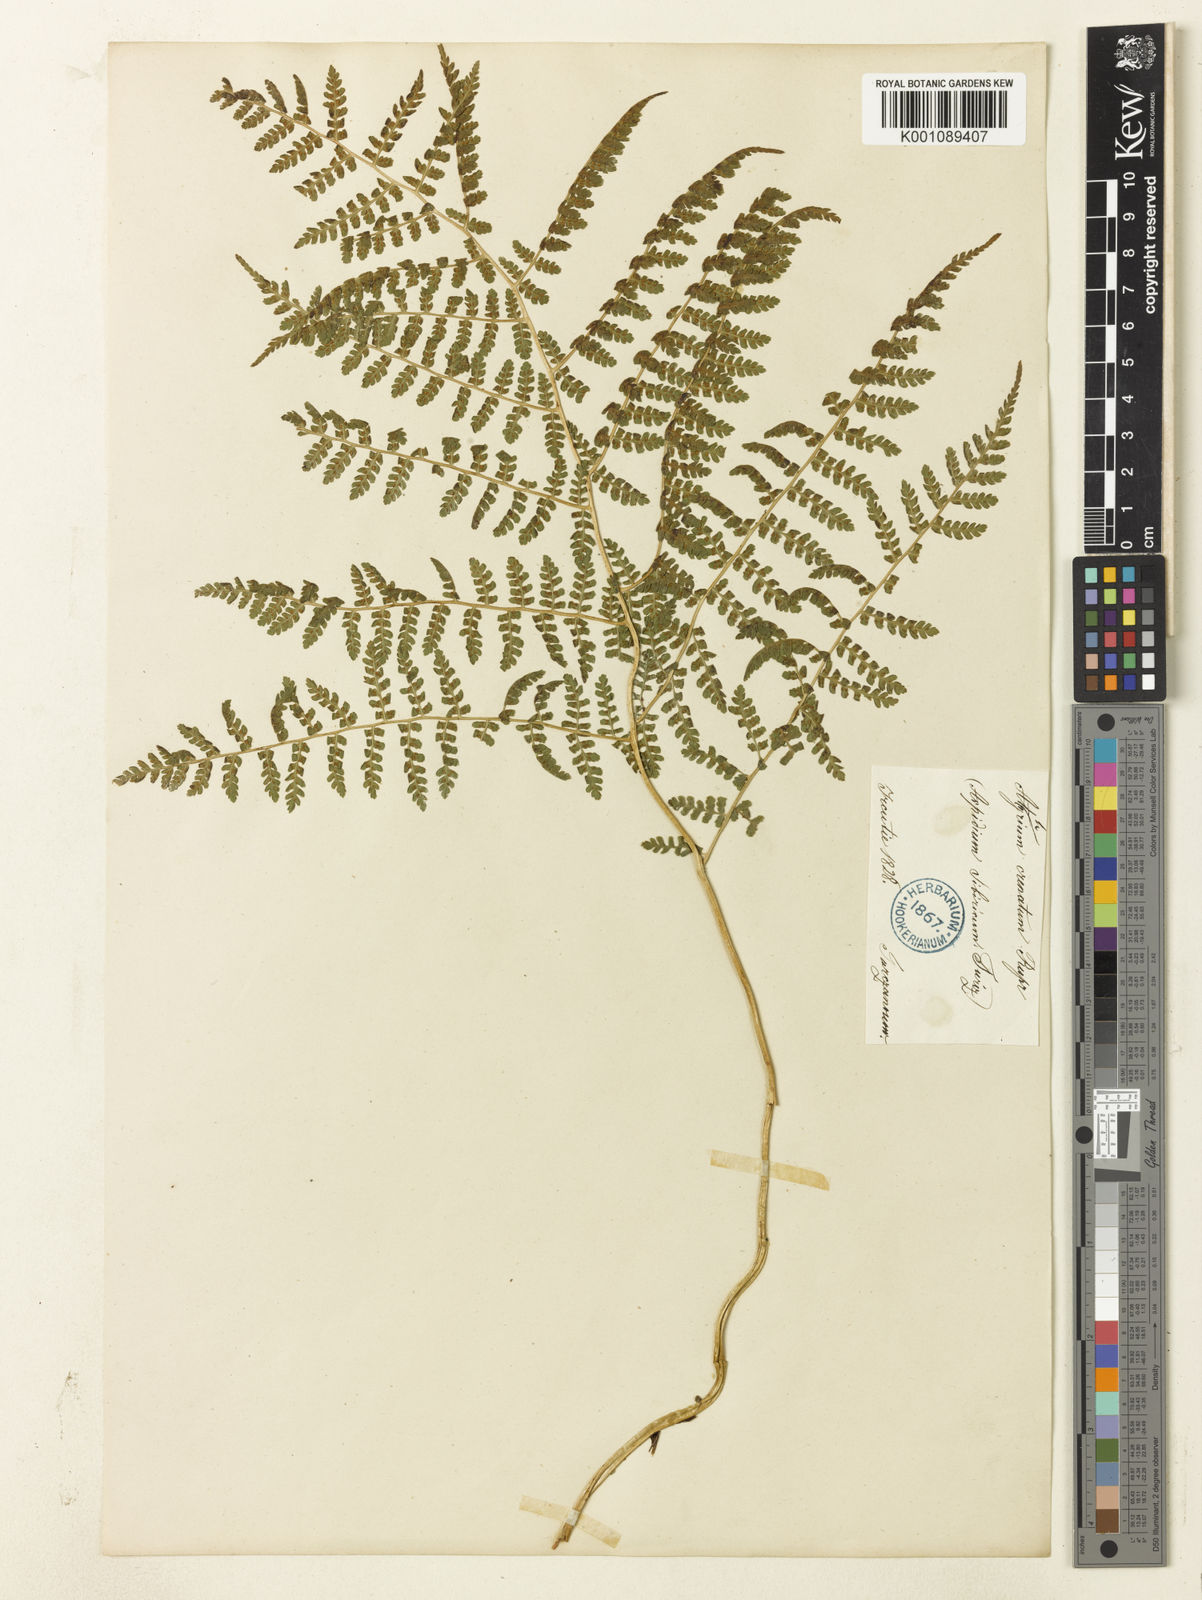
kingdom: Plantae
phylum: Tracheophyta
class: Polypodiopsida
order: Polypodiales
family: Athyriaceae
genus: Diplazium
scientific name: Diplazium sibiricum
